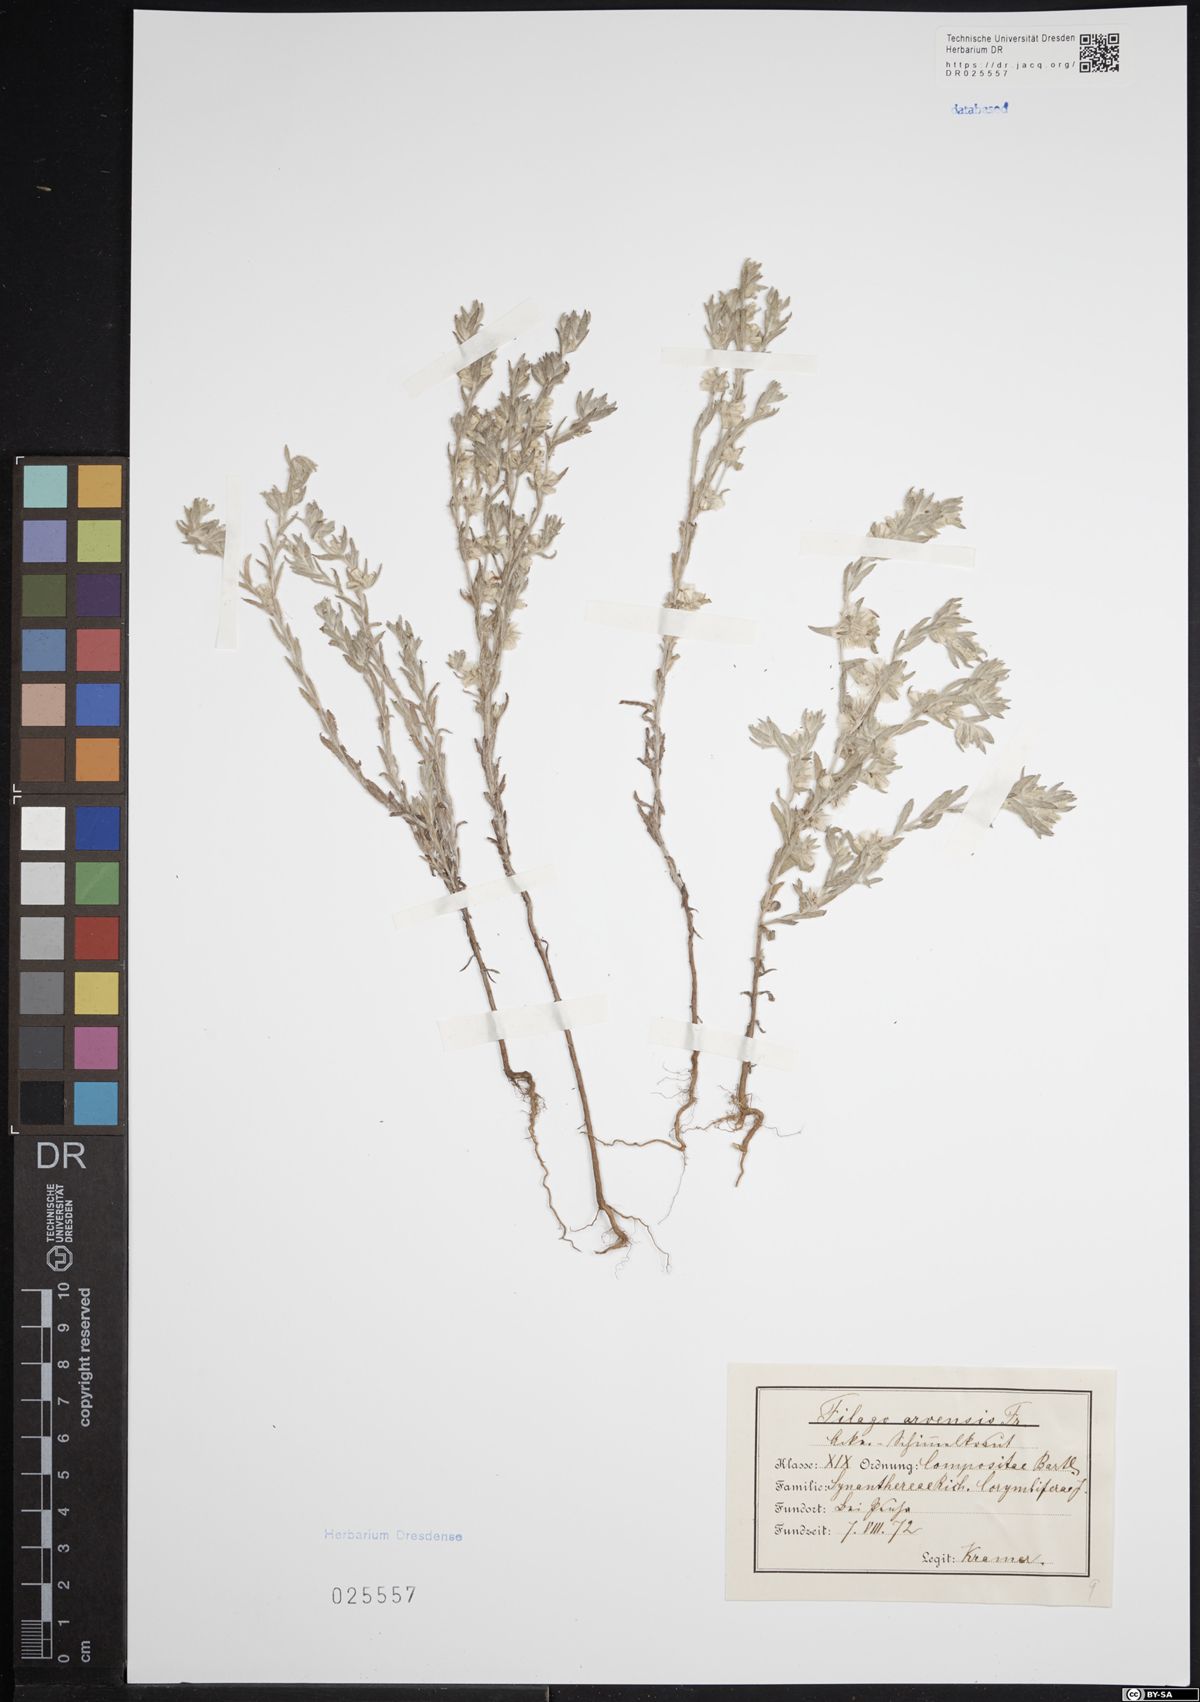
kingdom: Plantae
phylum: Tracheophyta
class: Magnoliopsida
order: Asterales
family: Asteraceae
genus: Filago
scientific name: Filago arvensis
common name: Field cudweed
